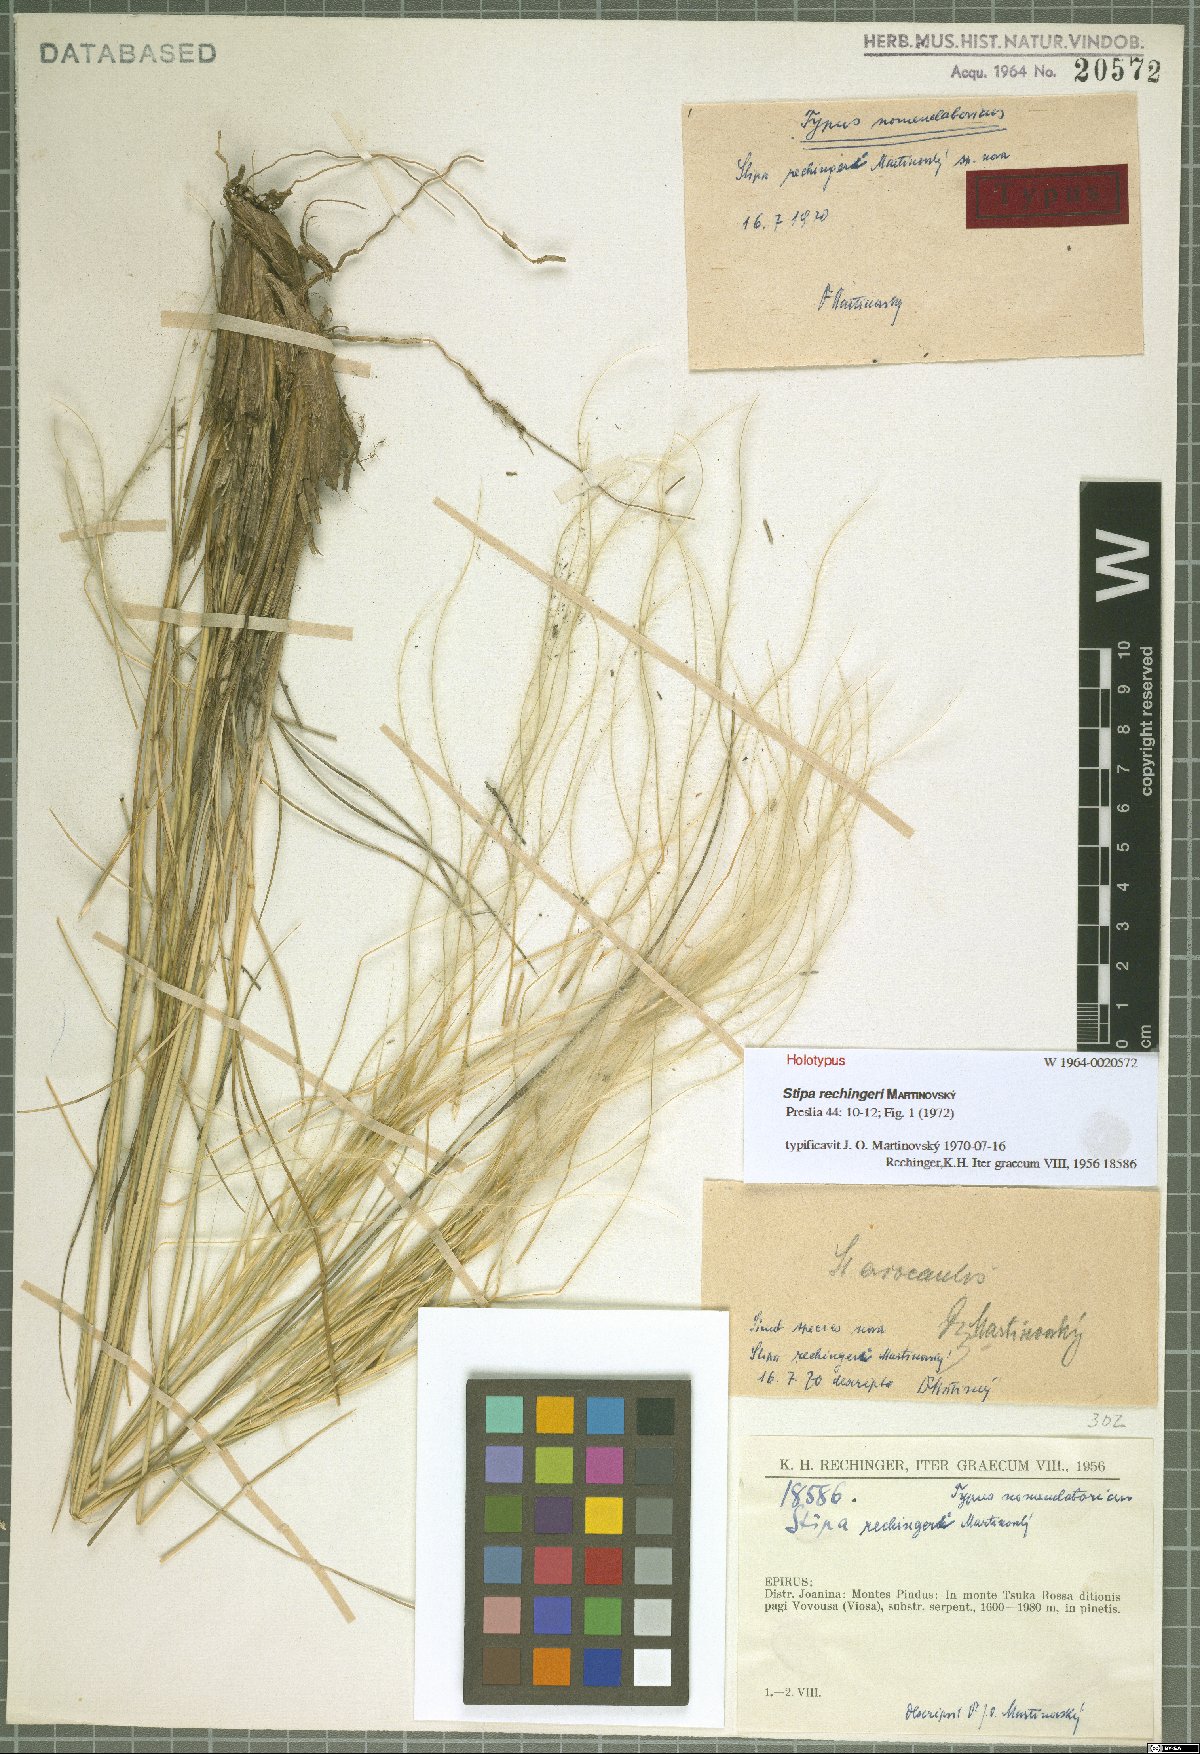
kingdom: Plantae
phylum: Tracheophyta
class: Liliopsida
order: Poales
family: Poaceae
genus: Stipa
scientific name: Stipa rechingeri
